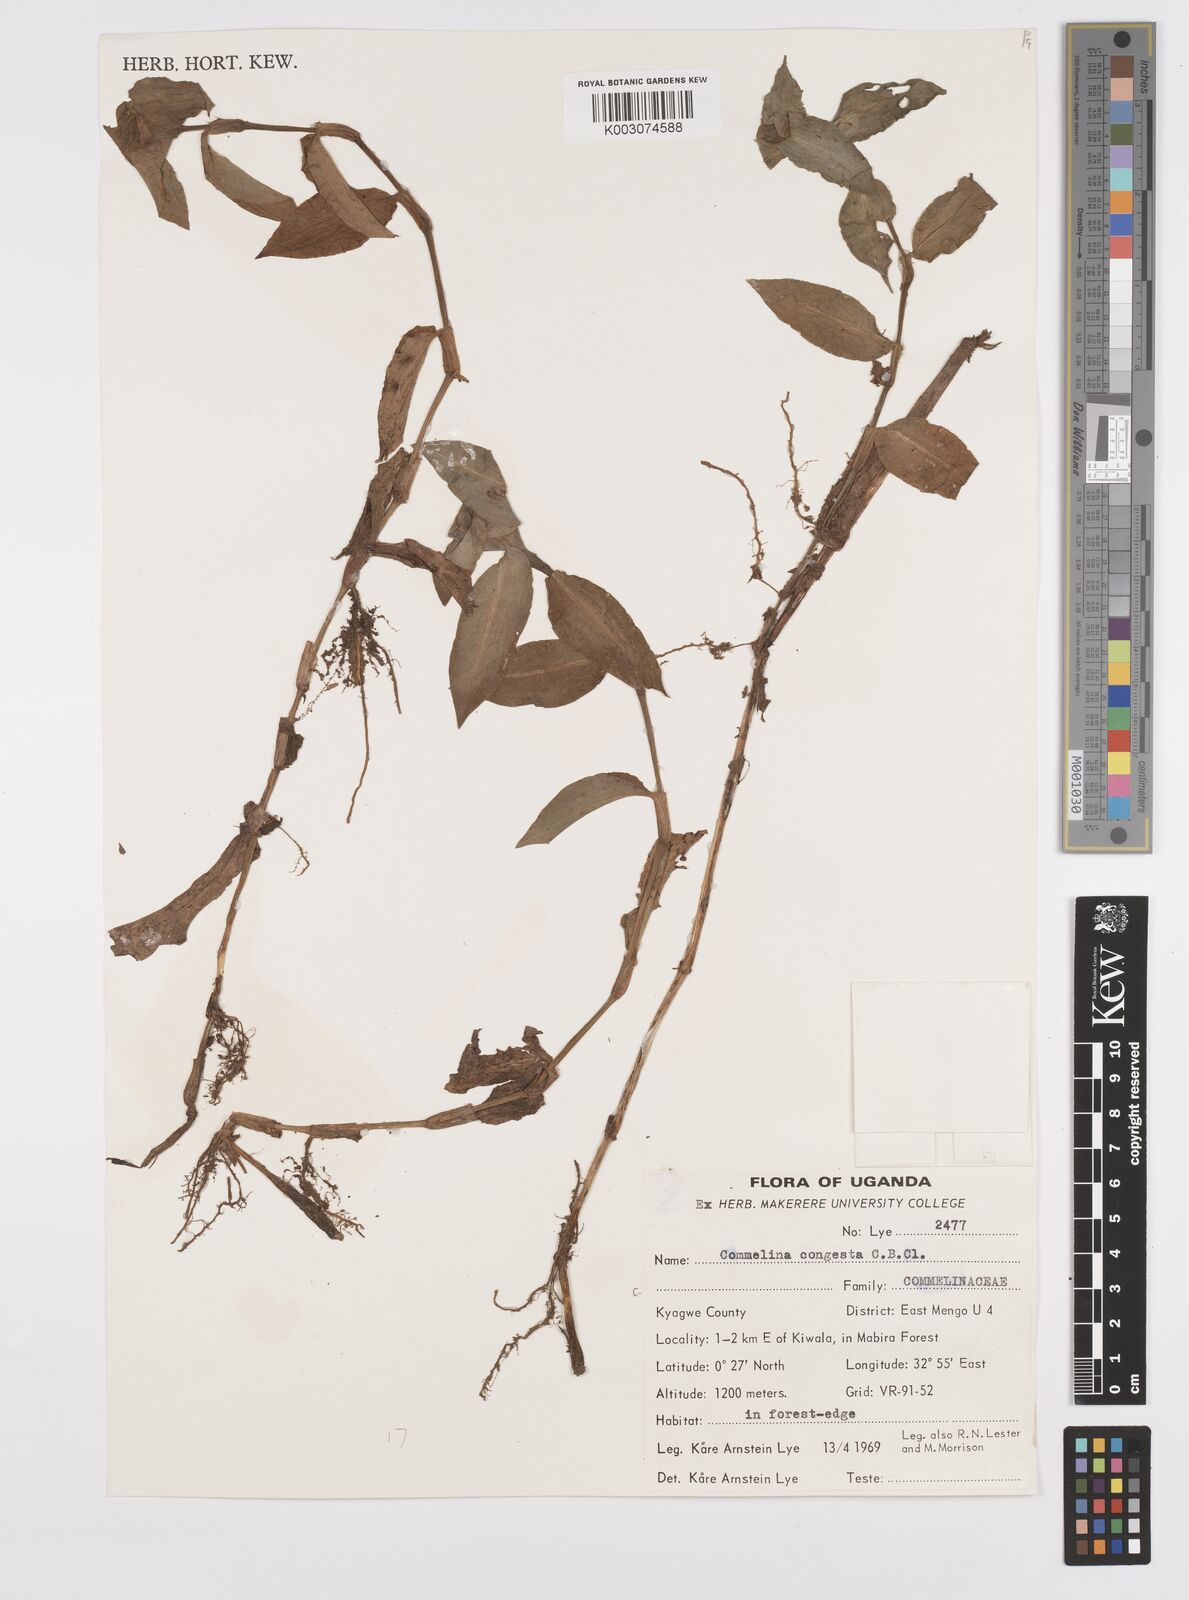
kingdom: Plantae
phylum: Tracheophyta
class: Liliopsida
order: Commelinales
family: Commelinaceae
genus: Commelina
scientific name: Commelina congesta
